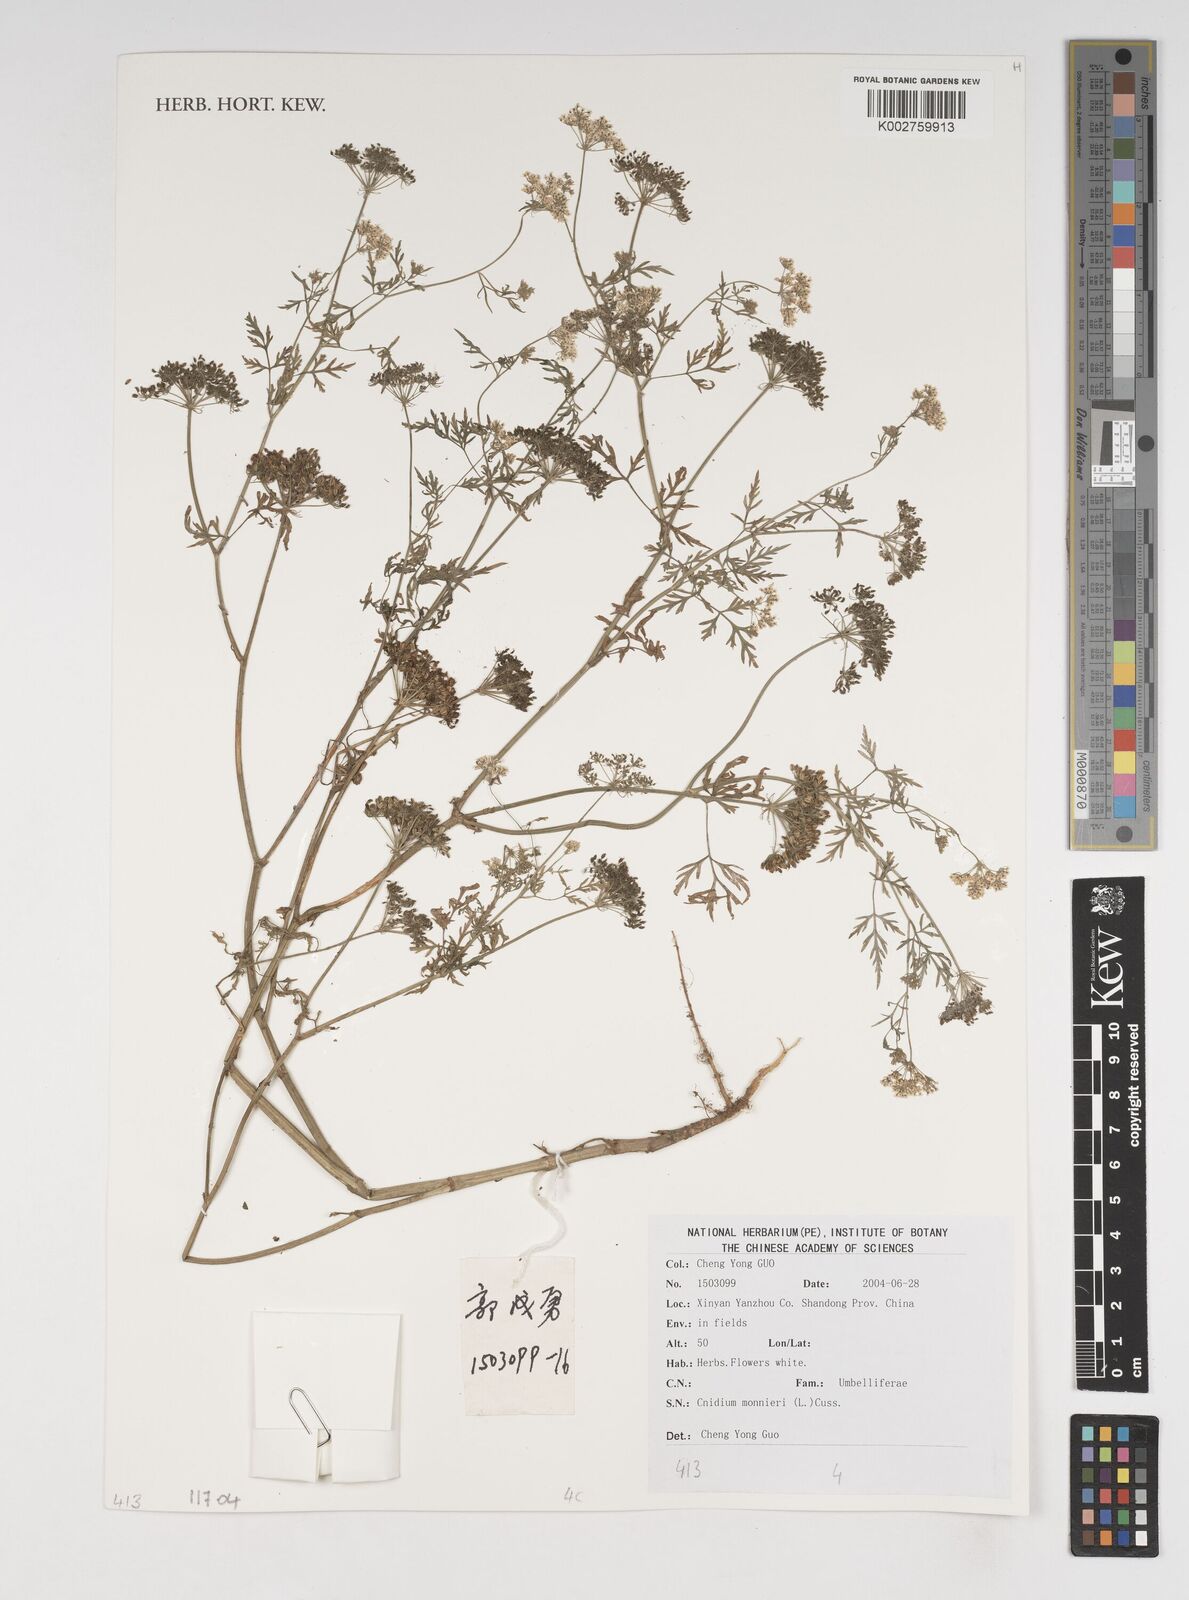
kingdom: Plantae
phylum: Tracheophyta
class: Magnoliopsida
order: Apiales
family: Apiaceae
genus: Cnidium
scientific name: Cnidium monnieri
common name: Monnier's snowparsley
